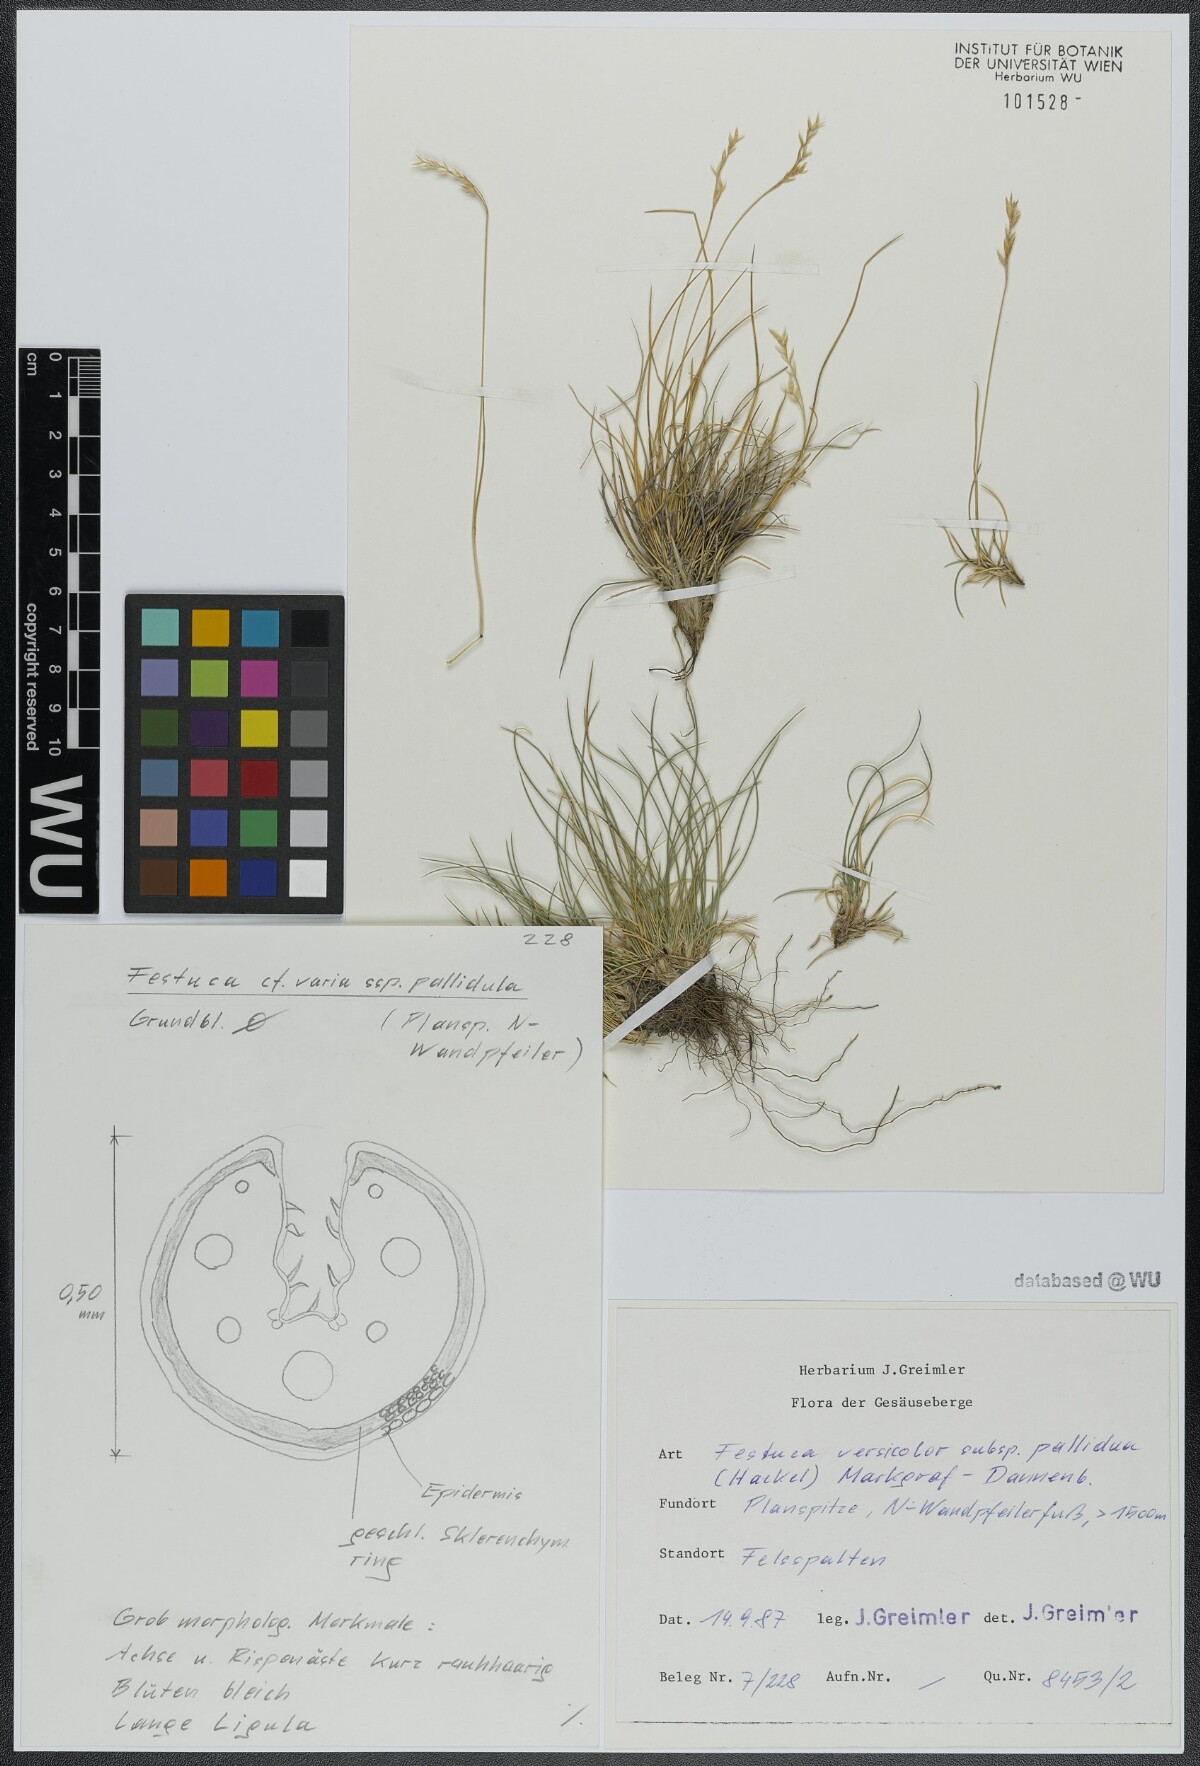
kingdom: Plantae
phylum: Tracheophyta
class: Liliopsida
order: Poales
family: Poaceae
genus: Festuca
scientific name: Festuca varia
